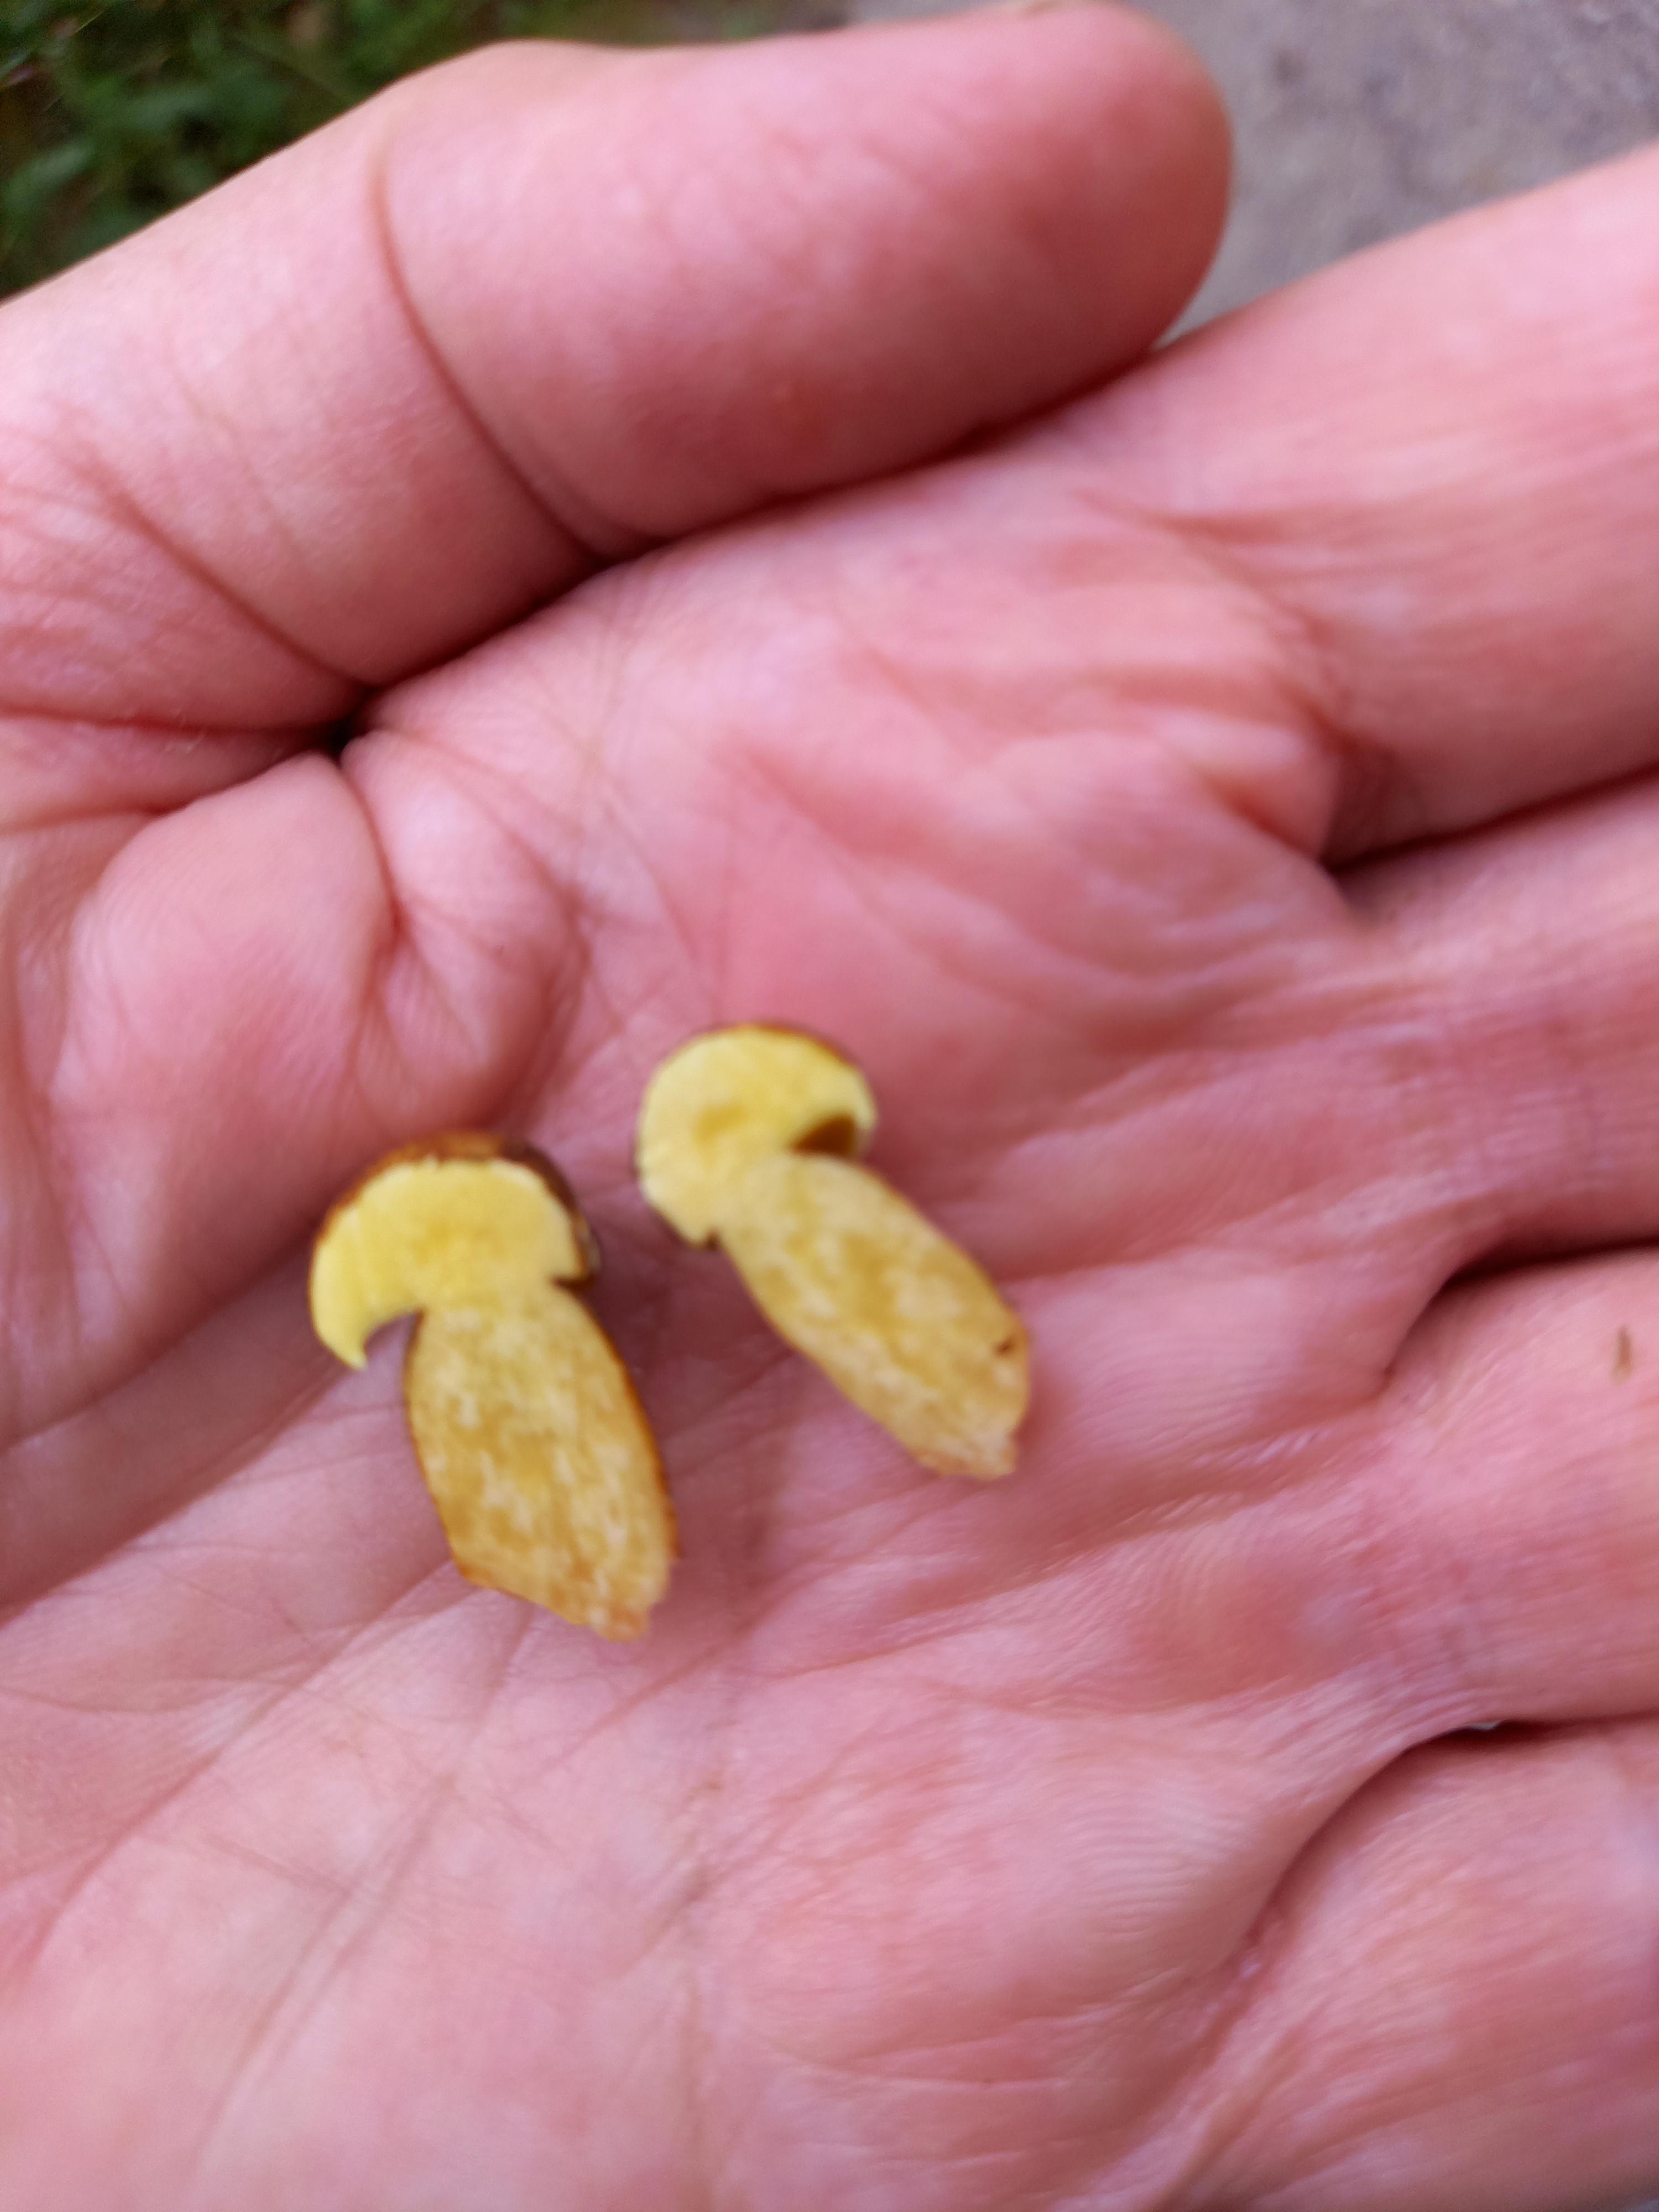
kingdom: Fungi
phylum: Basidiomycota
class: Agaricomycetes
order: Boletales
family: Boletaceae
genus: Pseudoboletus
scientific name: Pseudoboletus parasiticus
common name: snyltende rørhat
